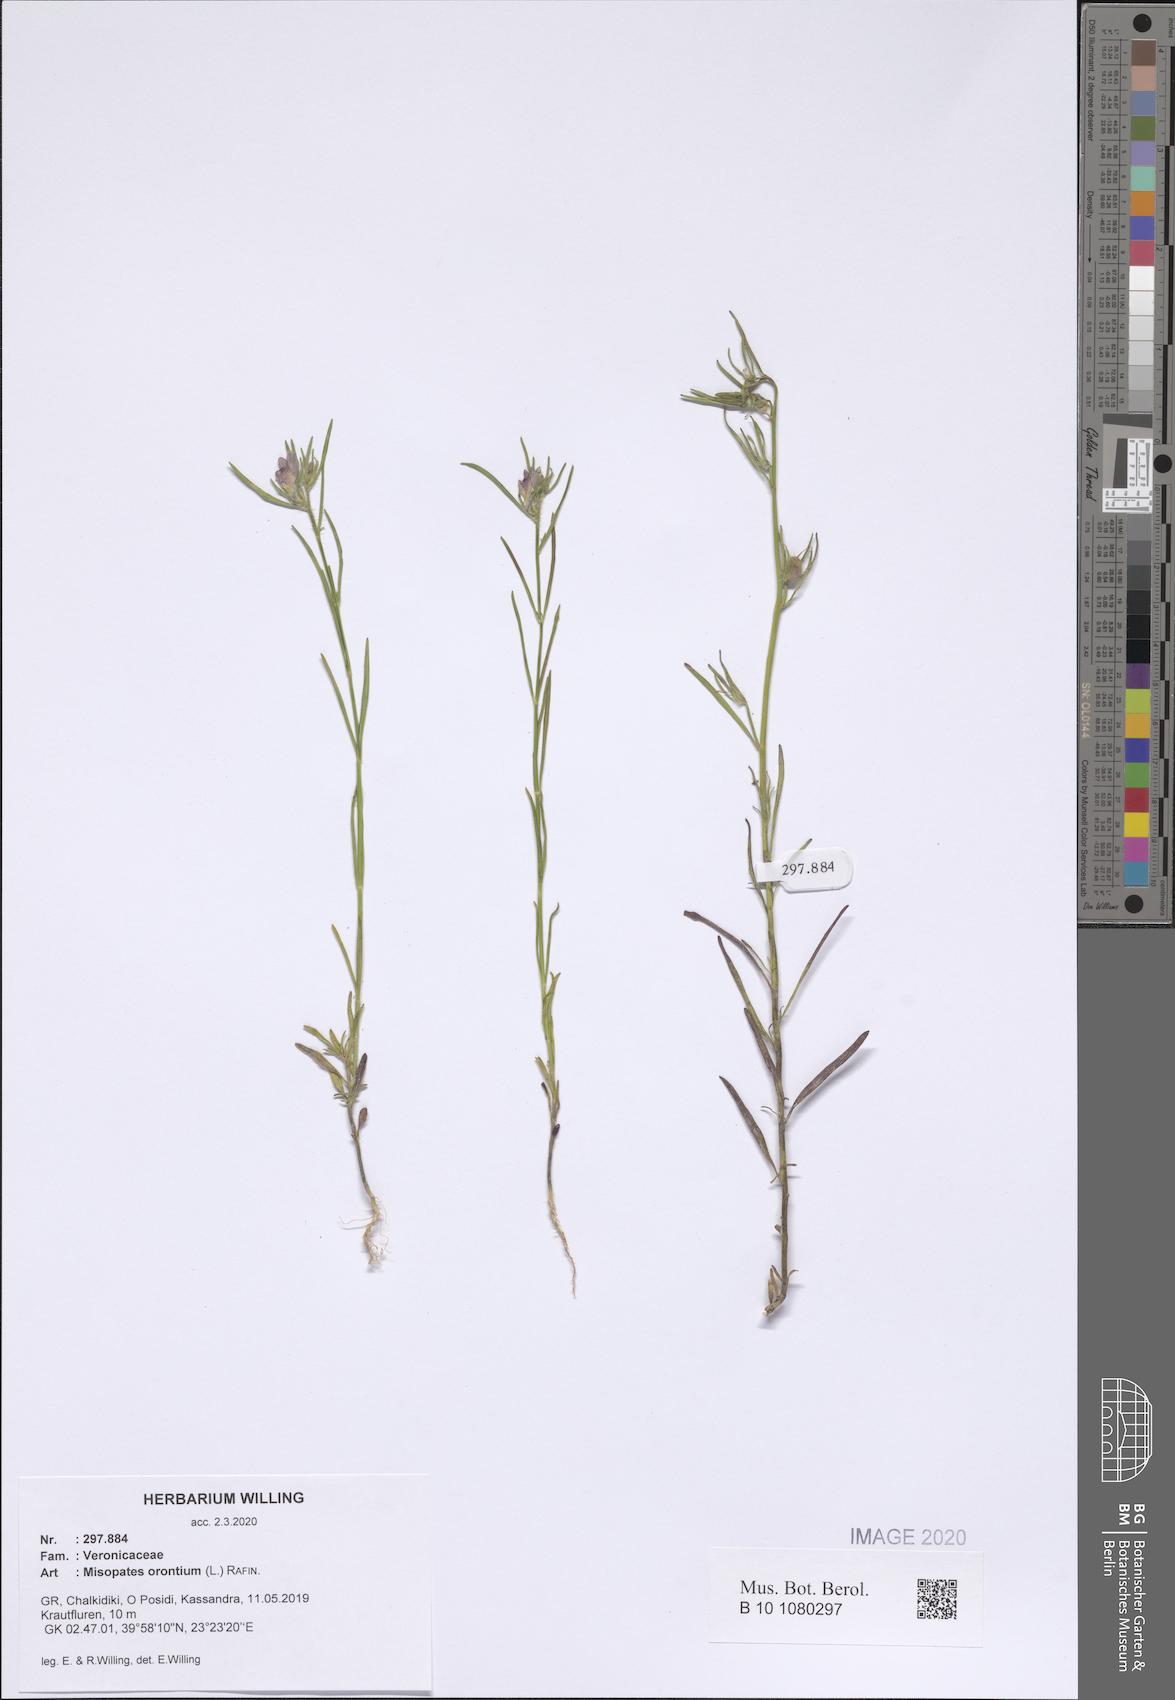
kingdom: Plantae
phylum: Tracheophyta
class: Magnoliopsida
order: Lamiales
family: Plantaginaceae
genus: Misopates
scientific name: Misopates orontium
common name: Weasel's-snout
